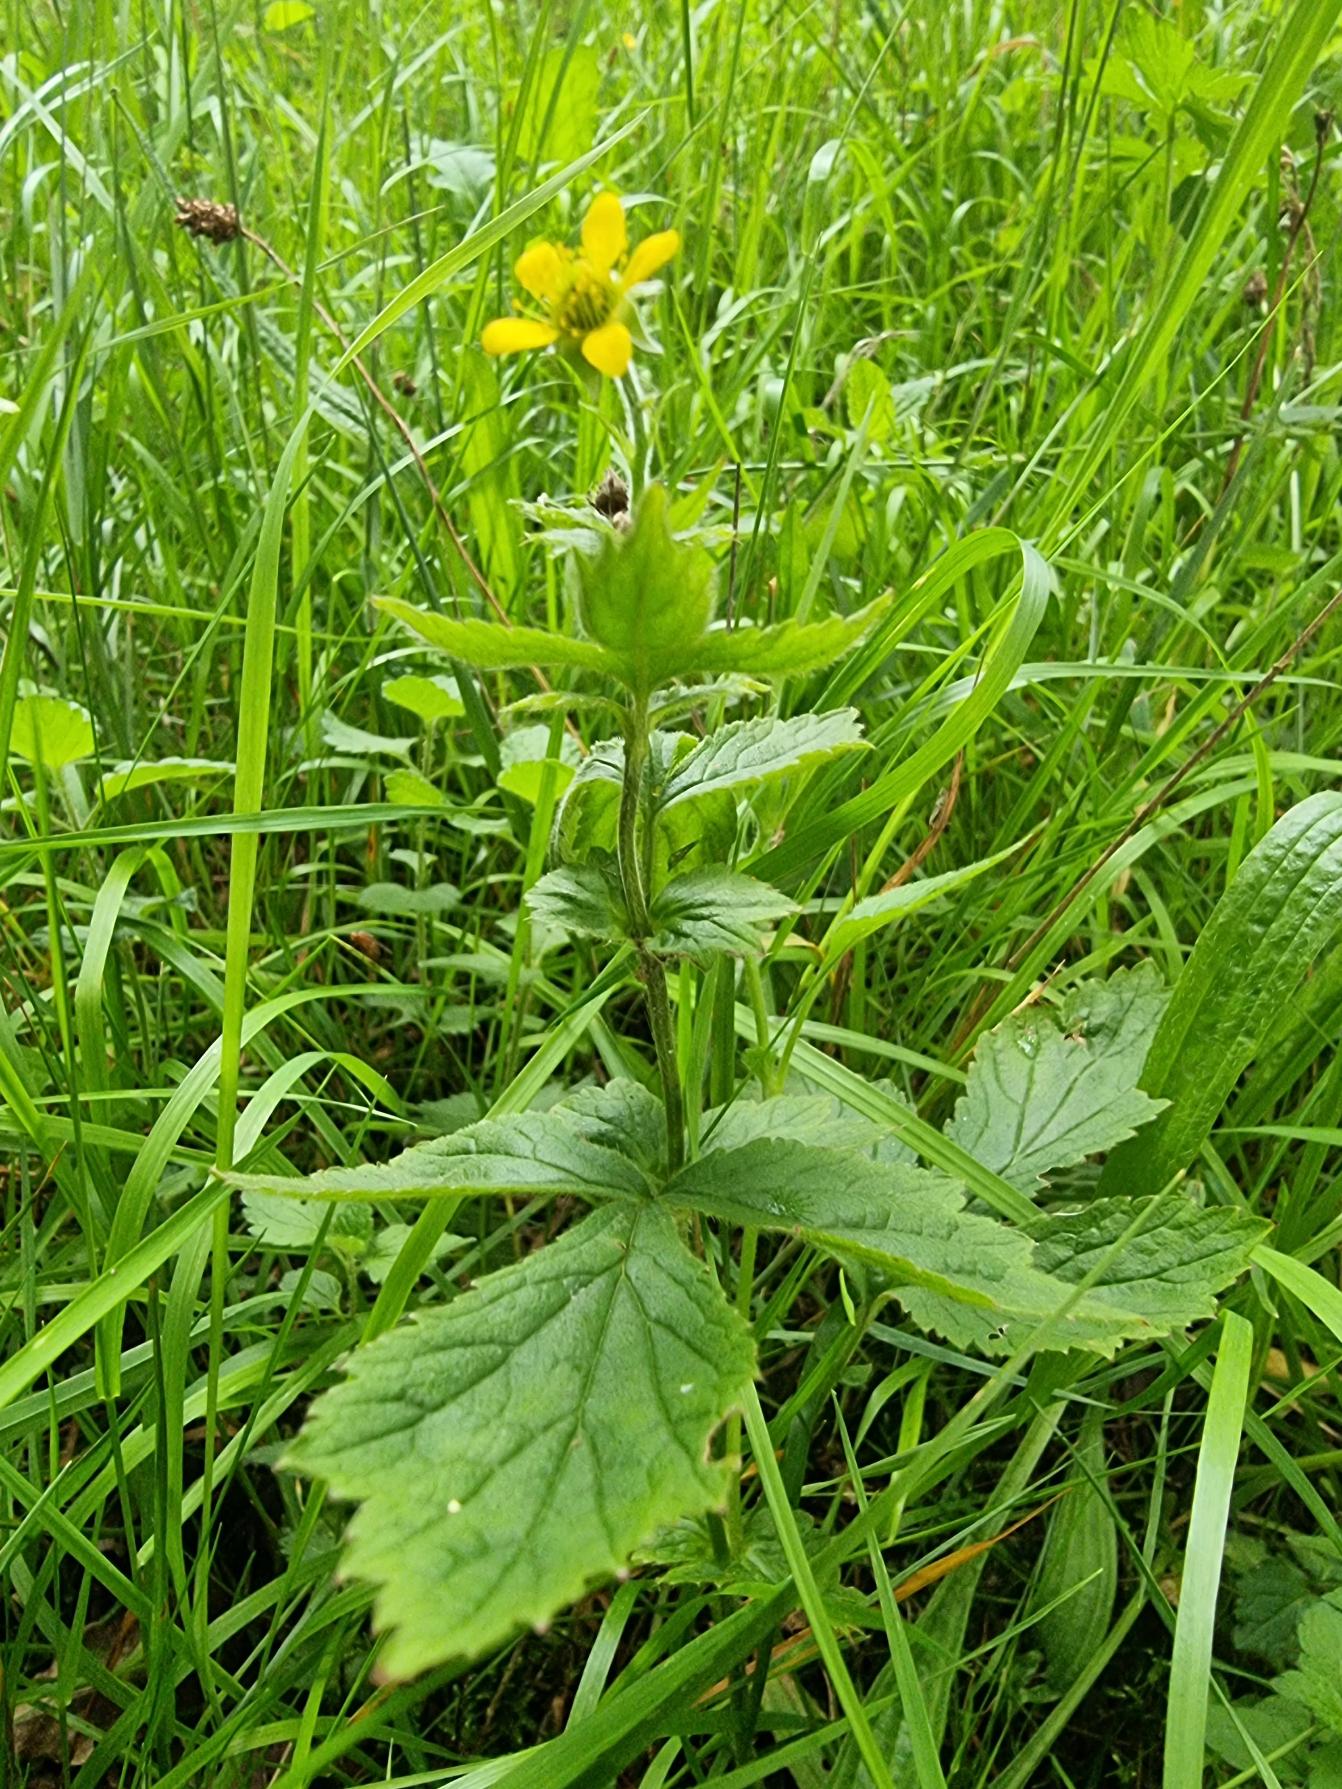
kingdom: Plantae
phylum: Tracheophyta
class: Magnoliopsida
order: Rosales
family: Rosaceae
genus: Geum
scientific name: Geum urbanum
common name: Feber-nellikerod
